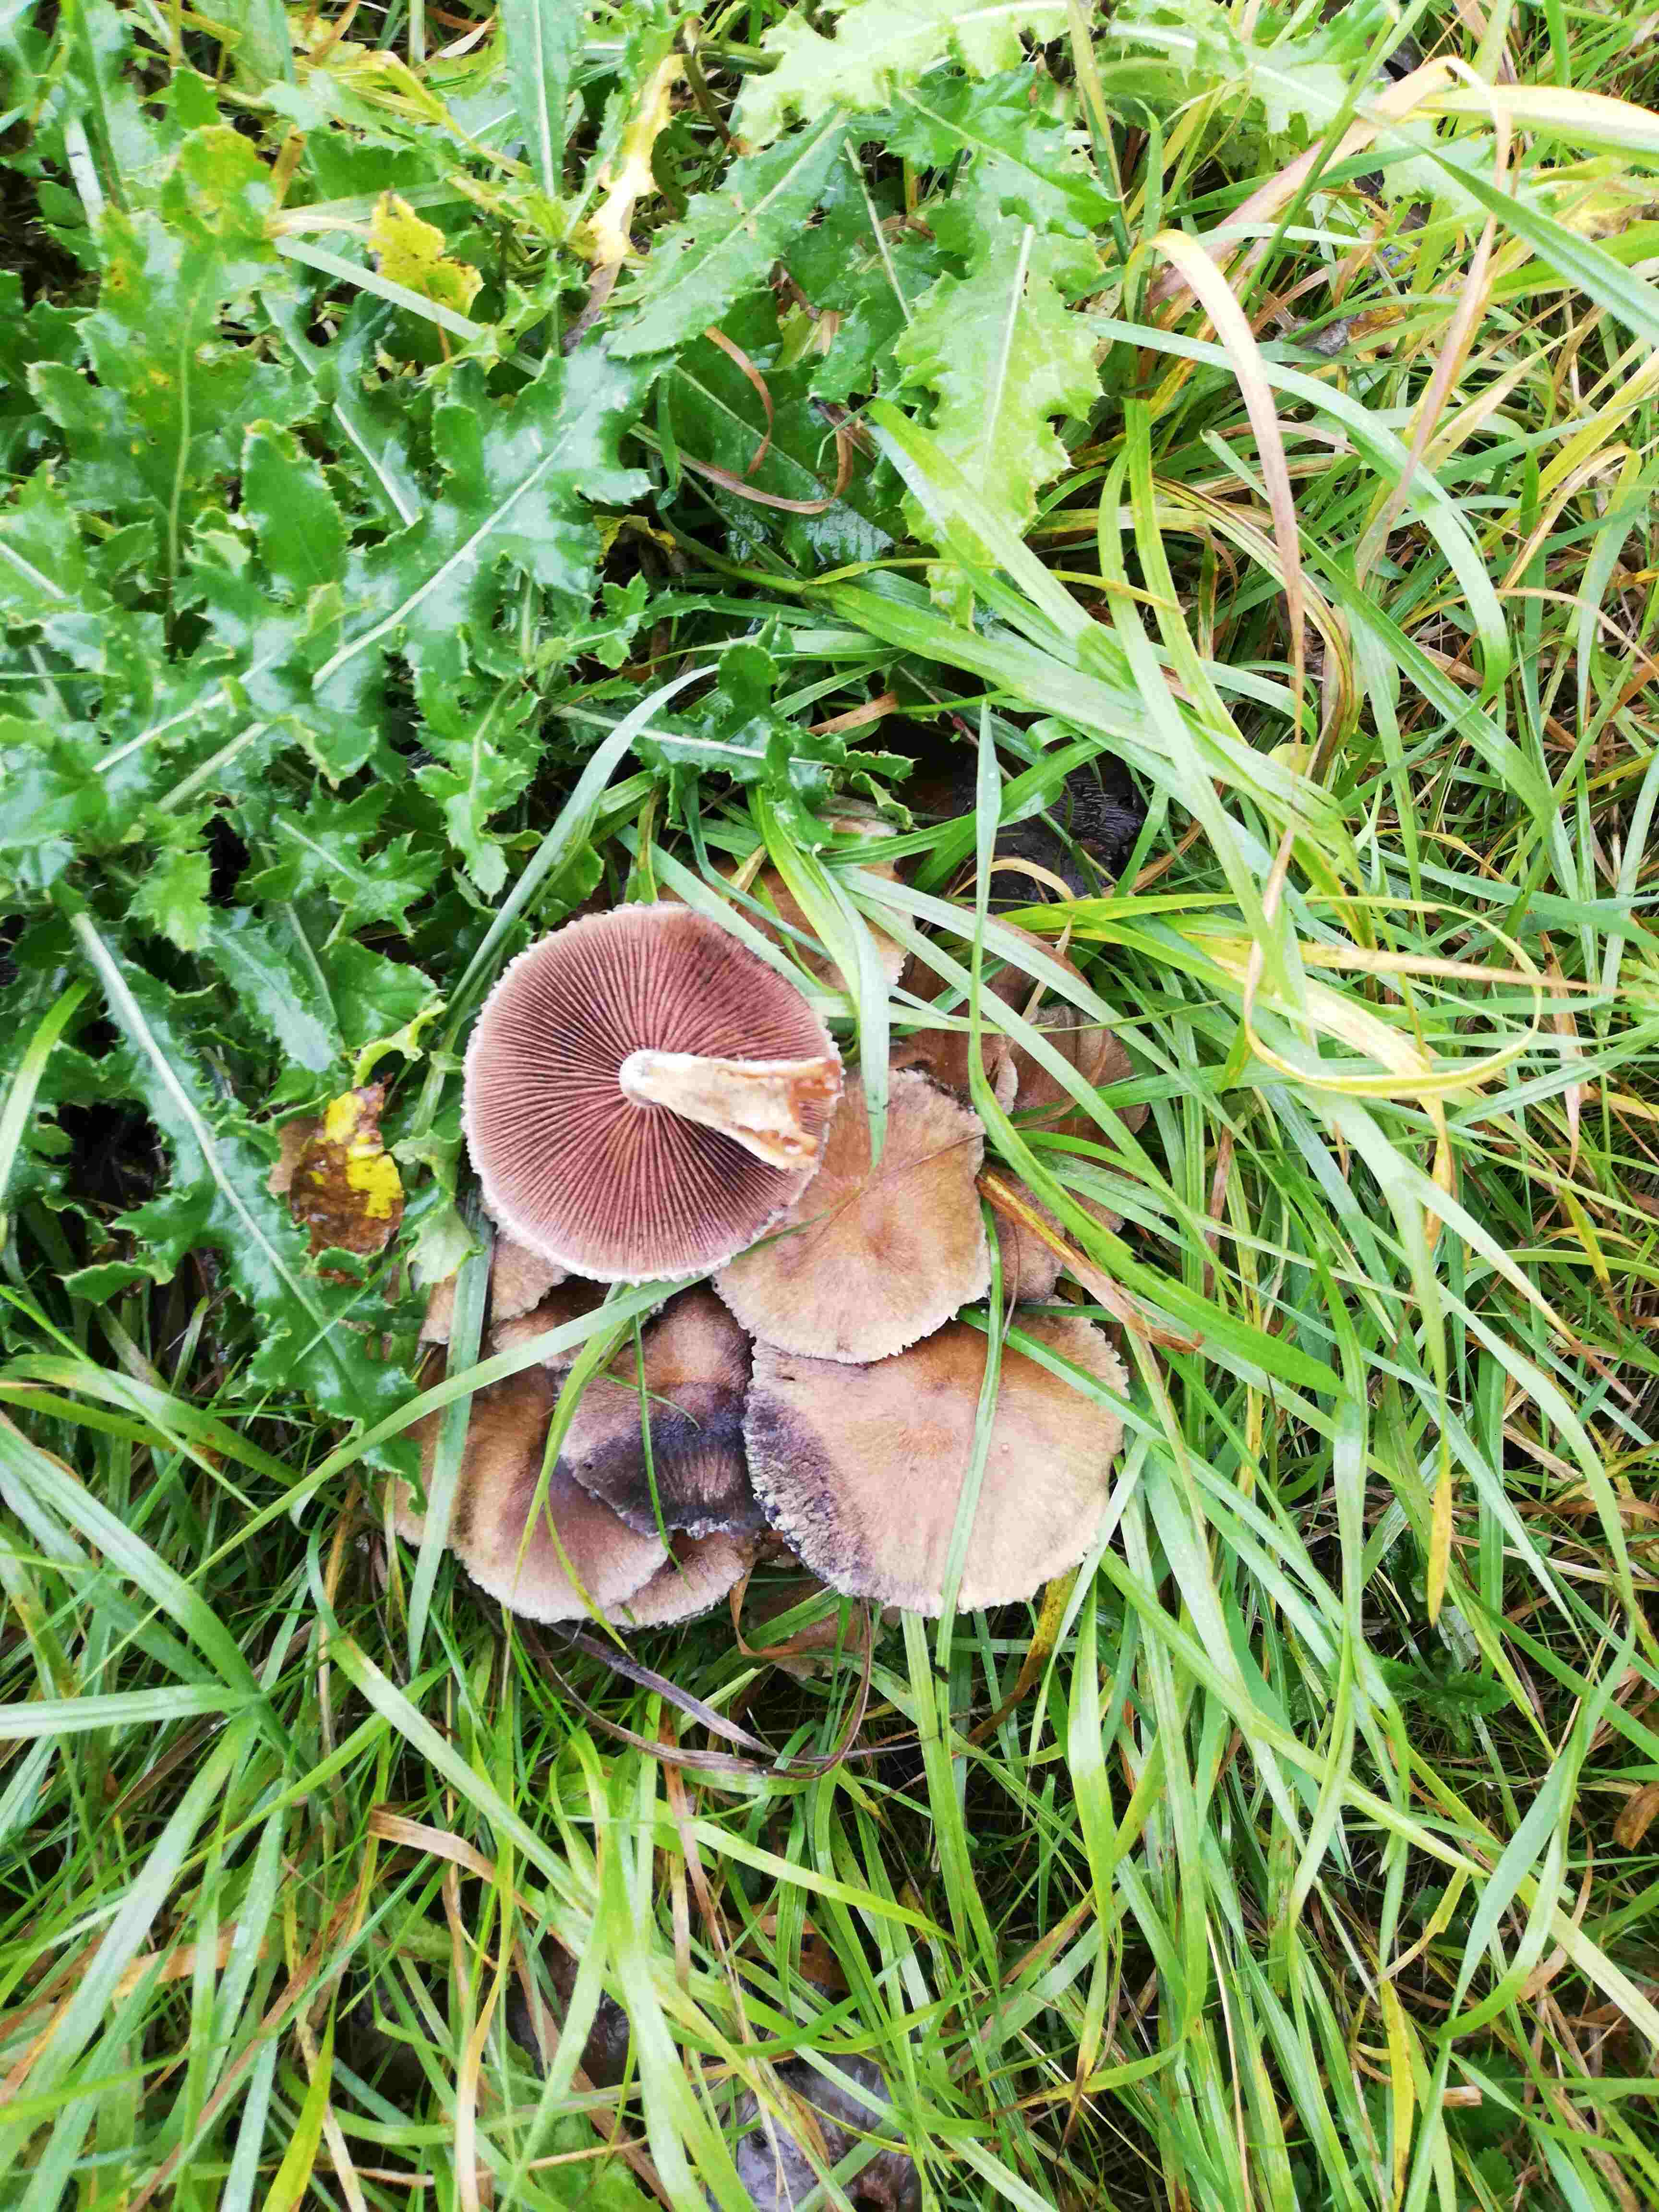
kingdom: Fungi
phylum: Basidiomycota
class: Agaricomycetes
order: Agaricales
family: Psathyrellaceae
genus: Lacrymaria
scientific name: Lacrymaria lacrymabunda
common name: grædende mørkhat
